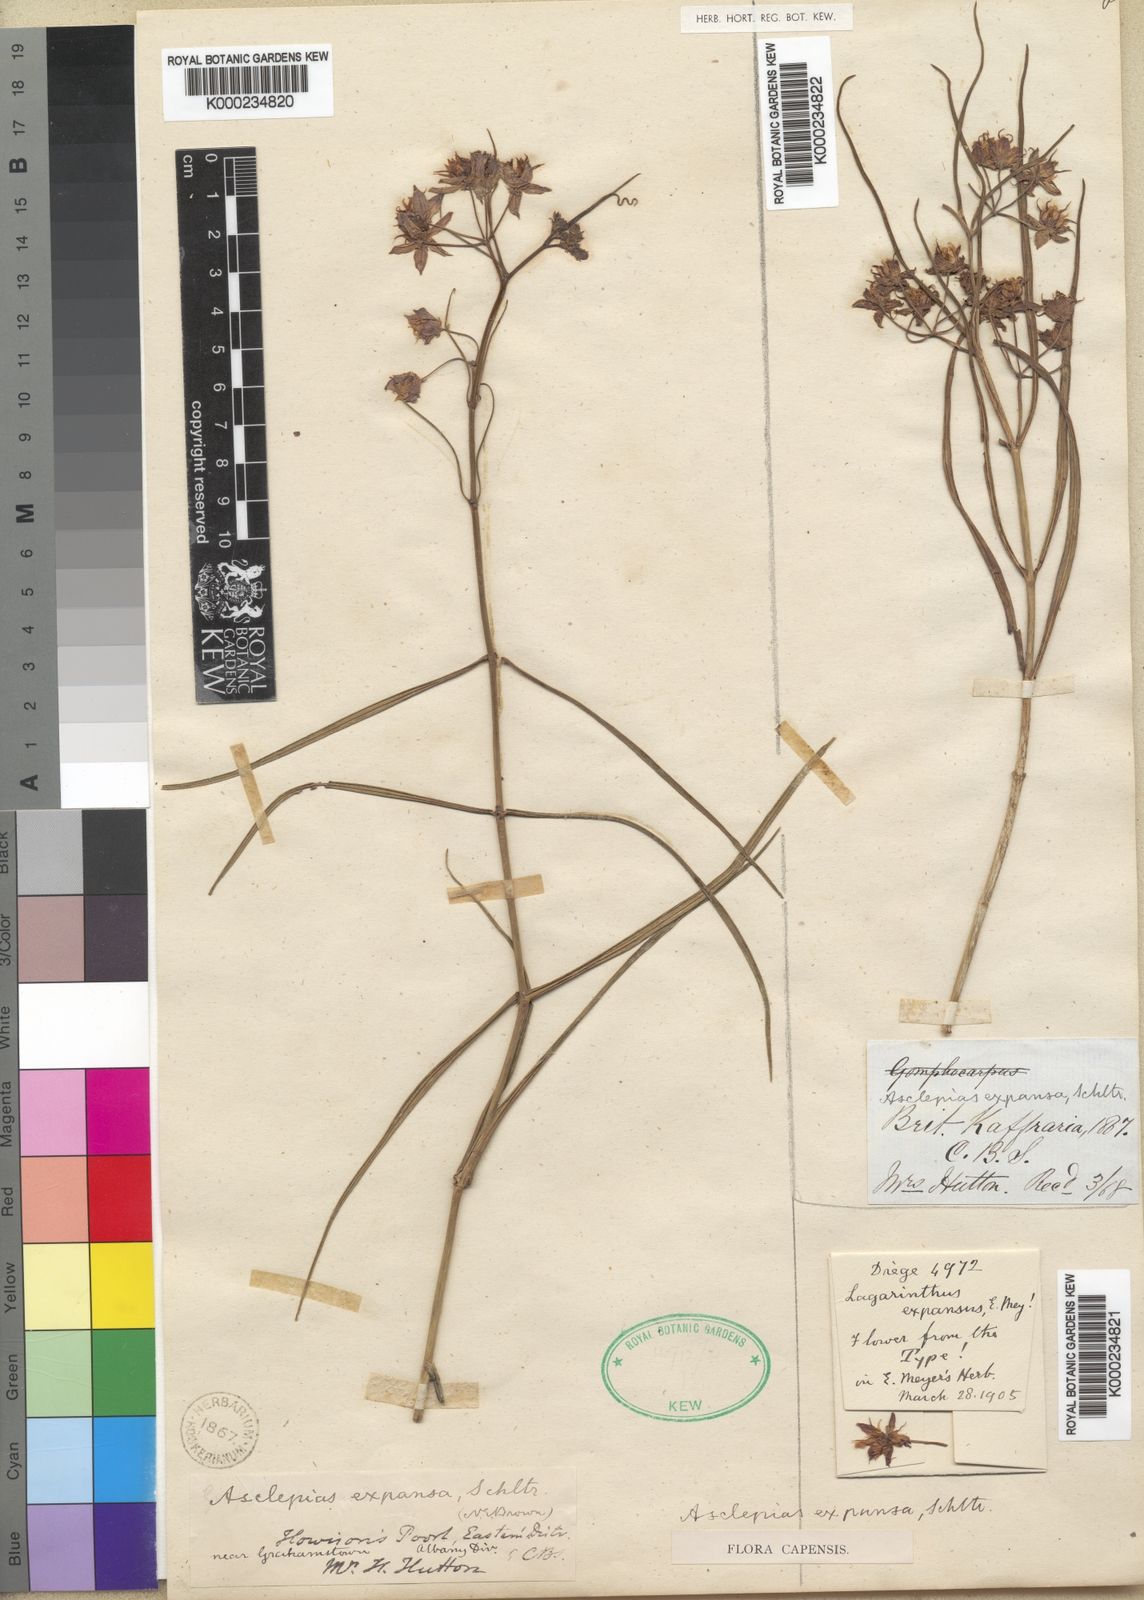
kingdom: Plantae
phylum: Tracheophyta
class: Magnoliopsida
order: Gentianales
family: Apocynaceae
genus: Asclepias
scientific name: Asclepias expansa
